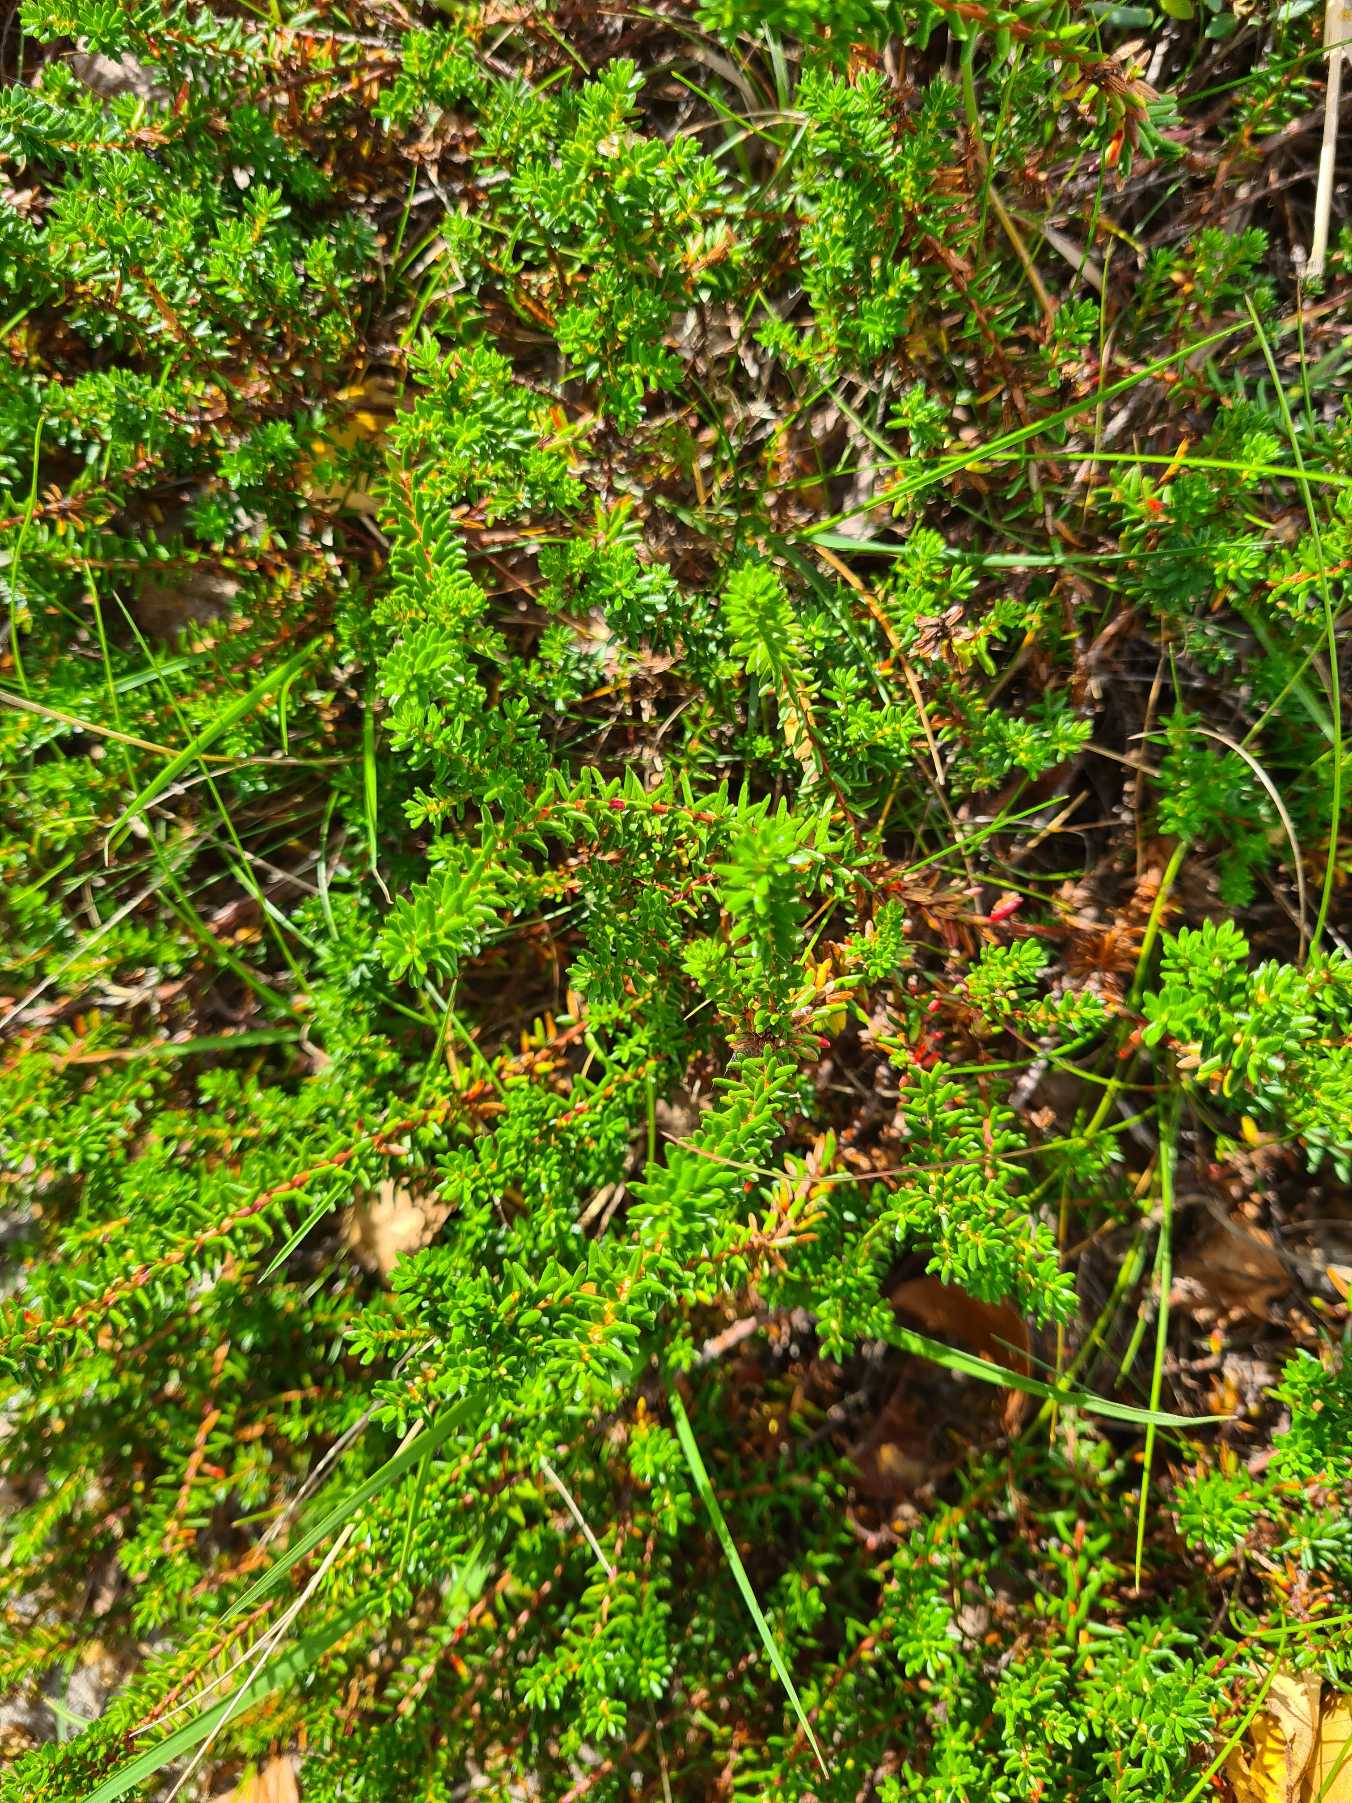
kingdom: Plantae
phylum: Tracheophyta
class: Magnoliopsida
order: Ericales
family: Ericaceae
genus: Empetrum
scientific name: Empetrum nigrum
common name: Revling
